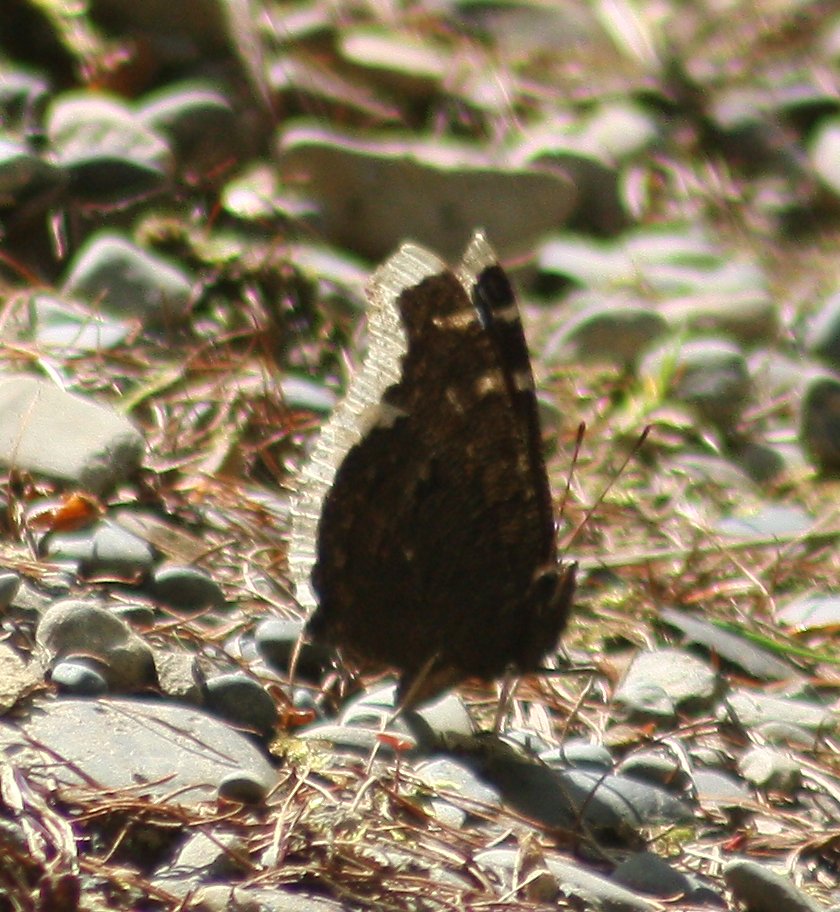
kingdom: Animalia
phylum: Arthropoda
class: Insecta
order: Lepidoptera
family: Nymphalidae
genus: Nymphalis
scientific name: Nymphalis antiopa
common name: Mourning Cloak
